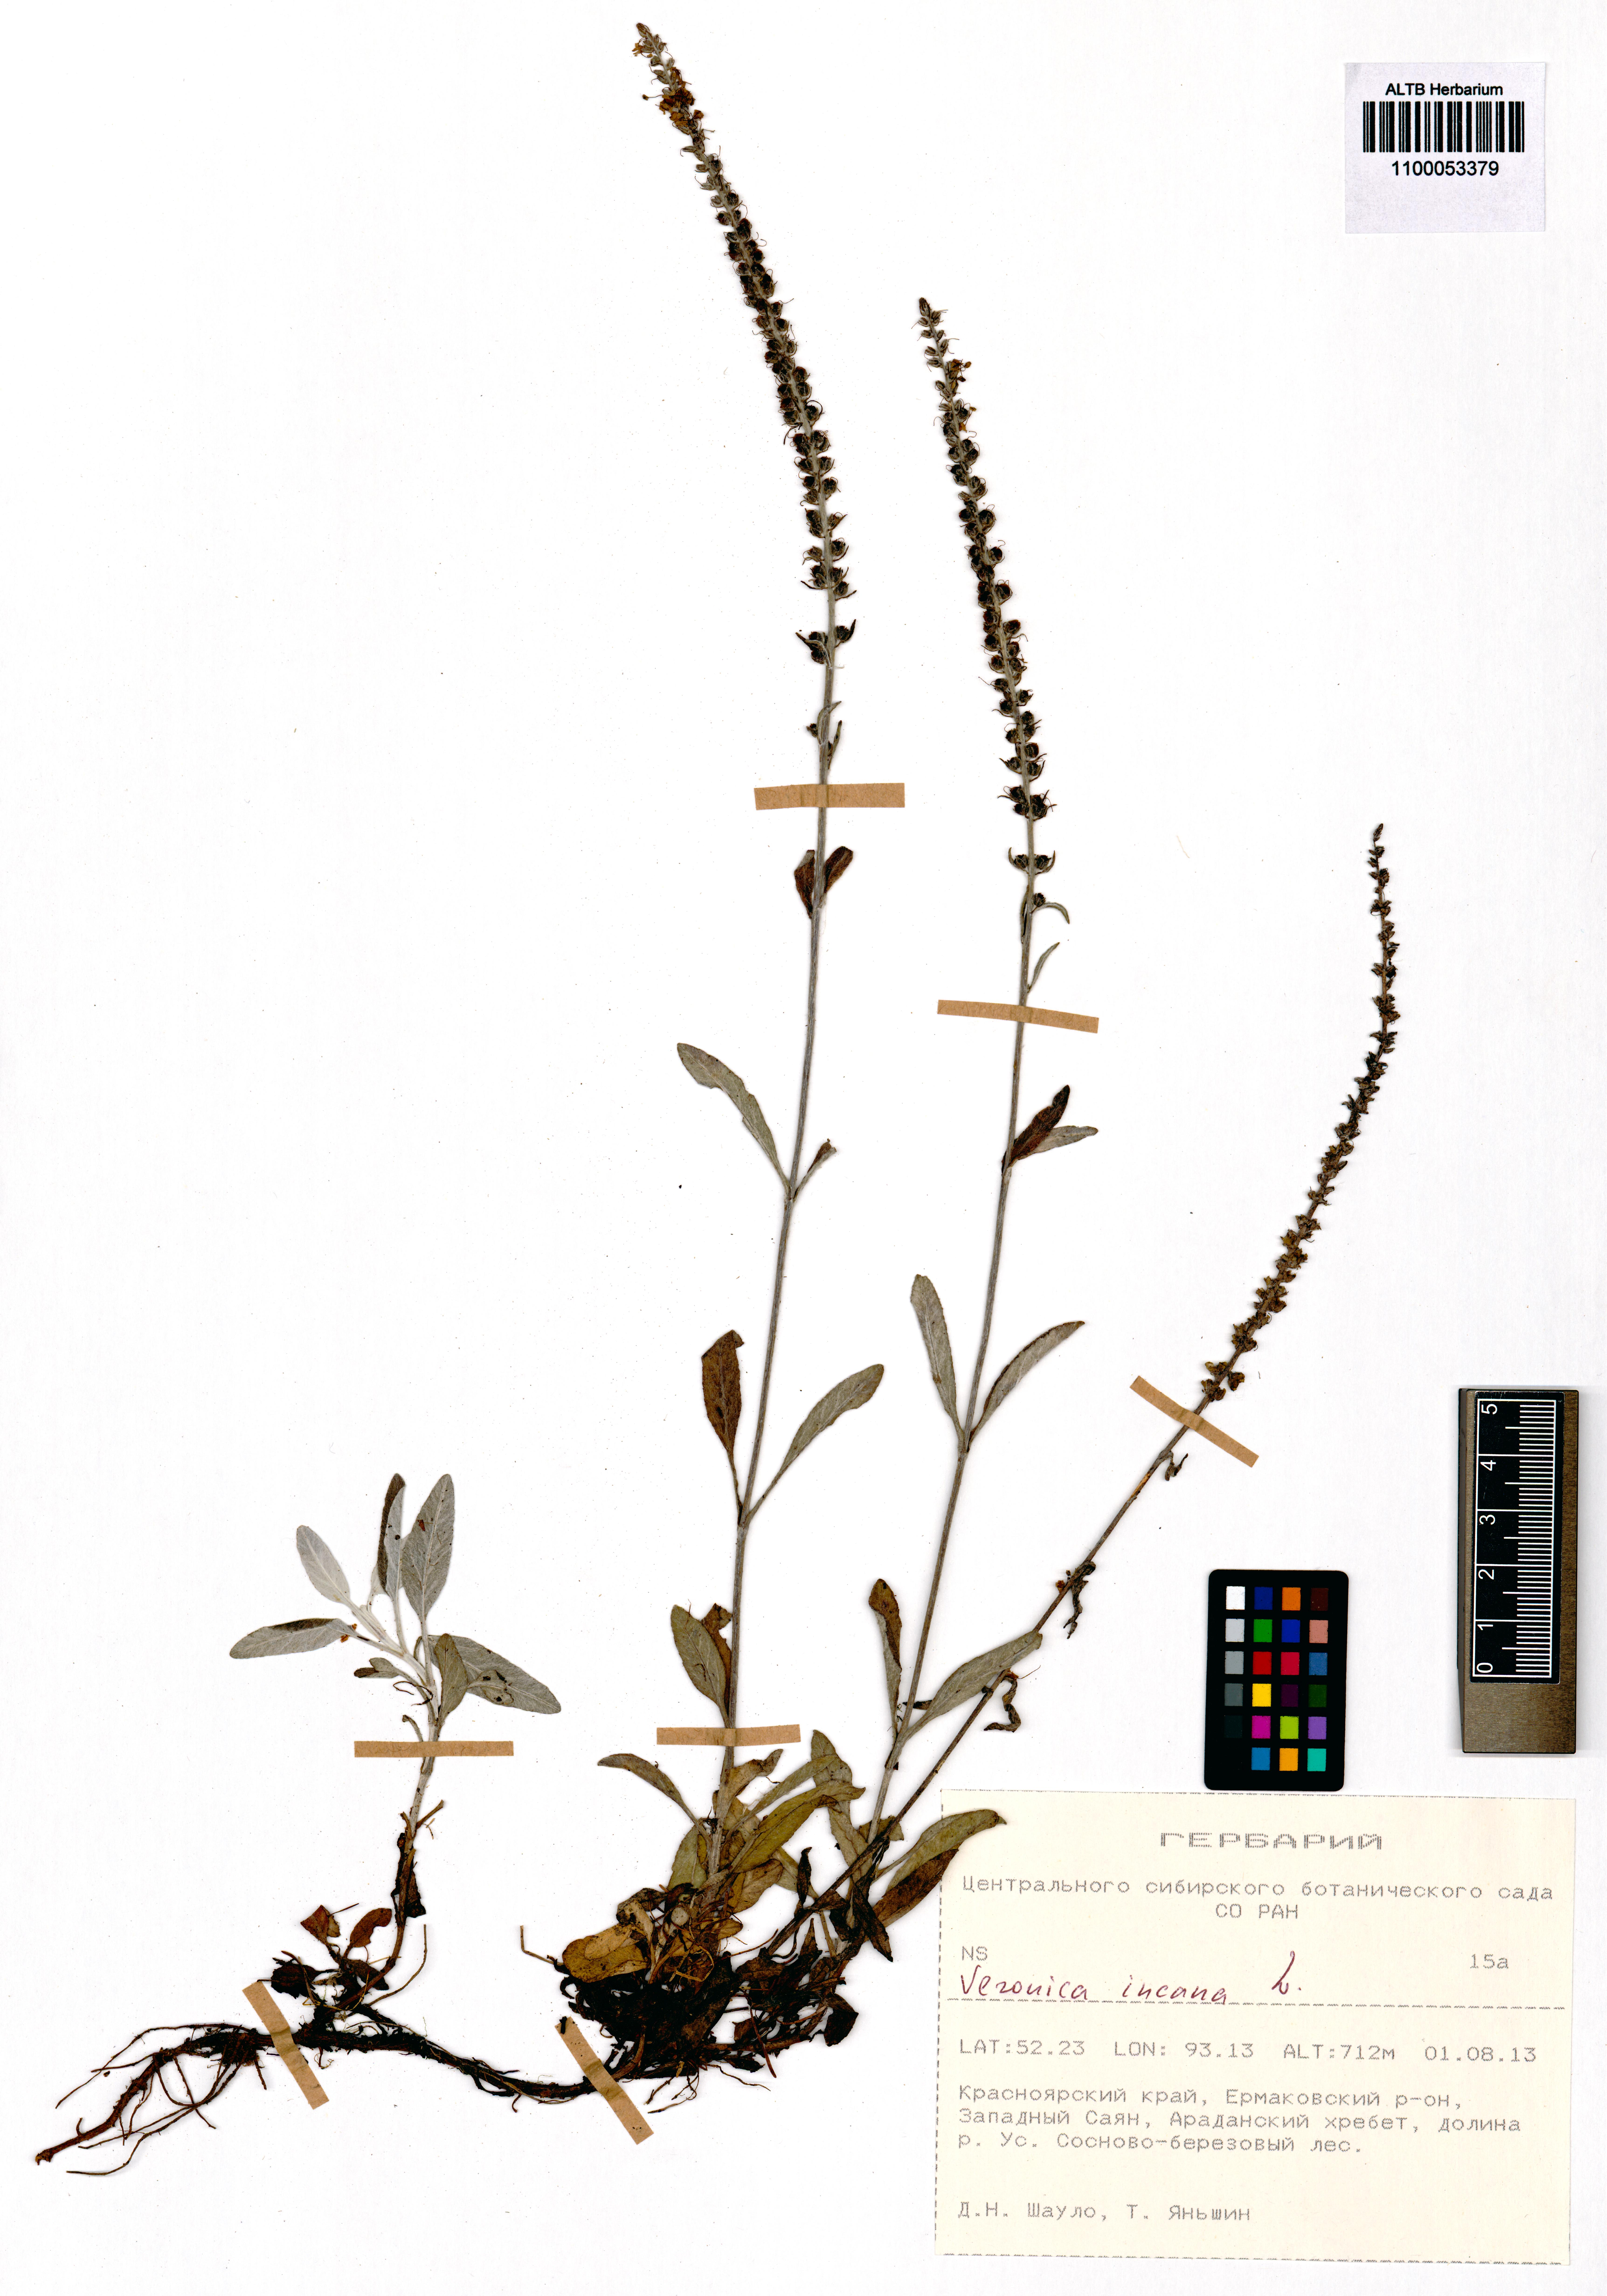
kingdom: Plantae
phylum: Tracheophyta
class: Magnoliopsida
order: Lamiales
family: Plantaginaceae
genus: Veronica
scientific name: Veronica incana
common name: Silver speedwell
